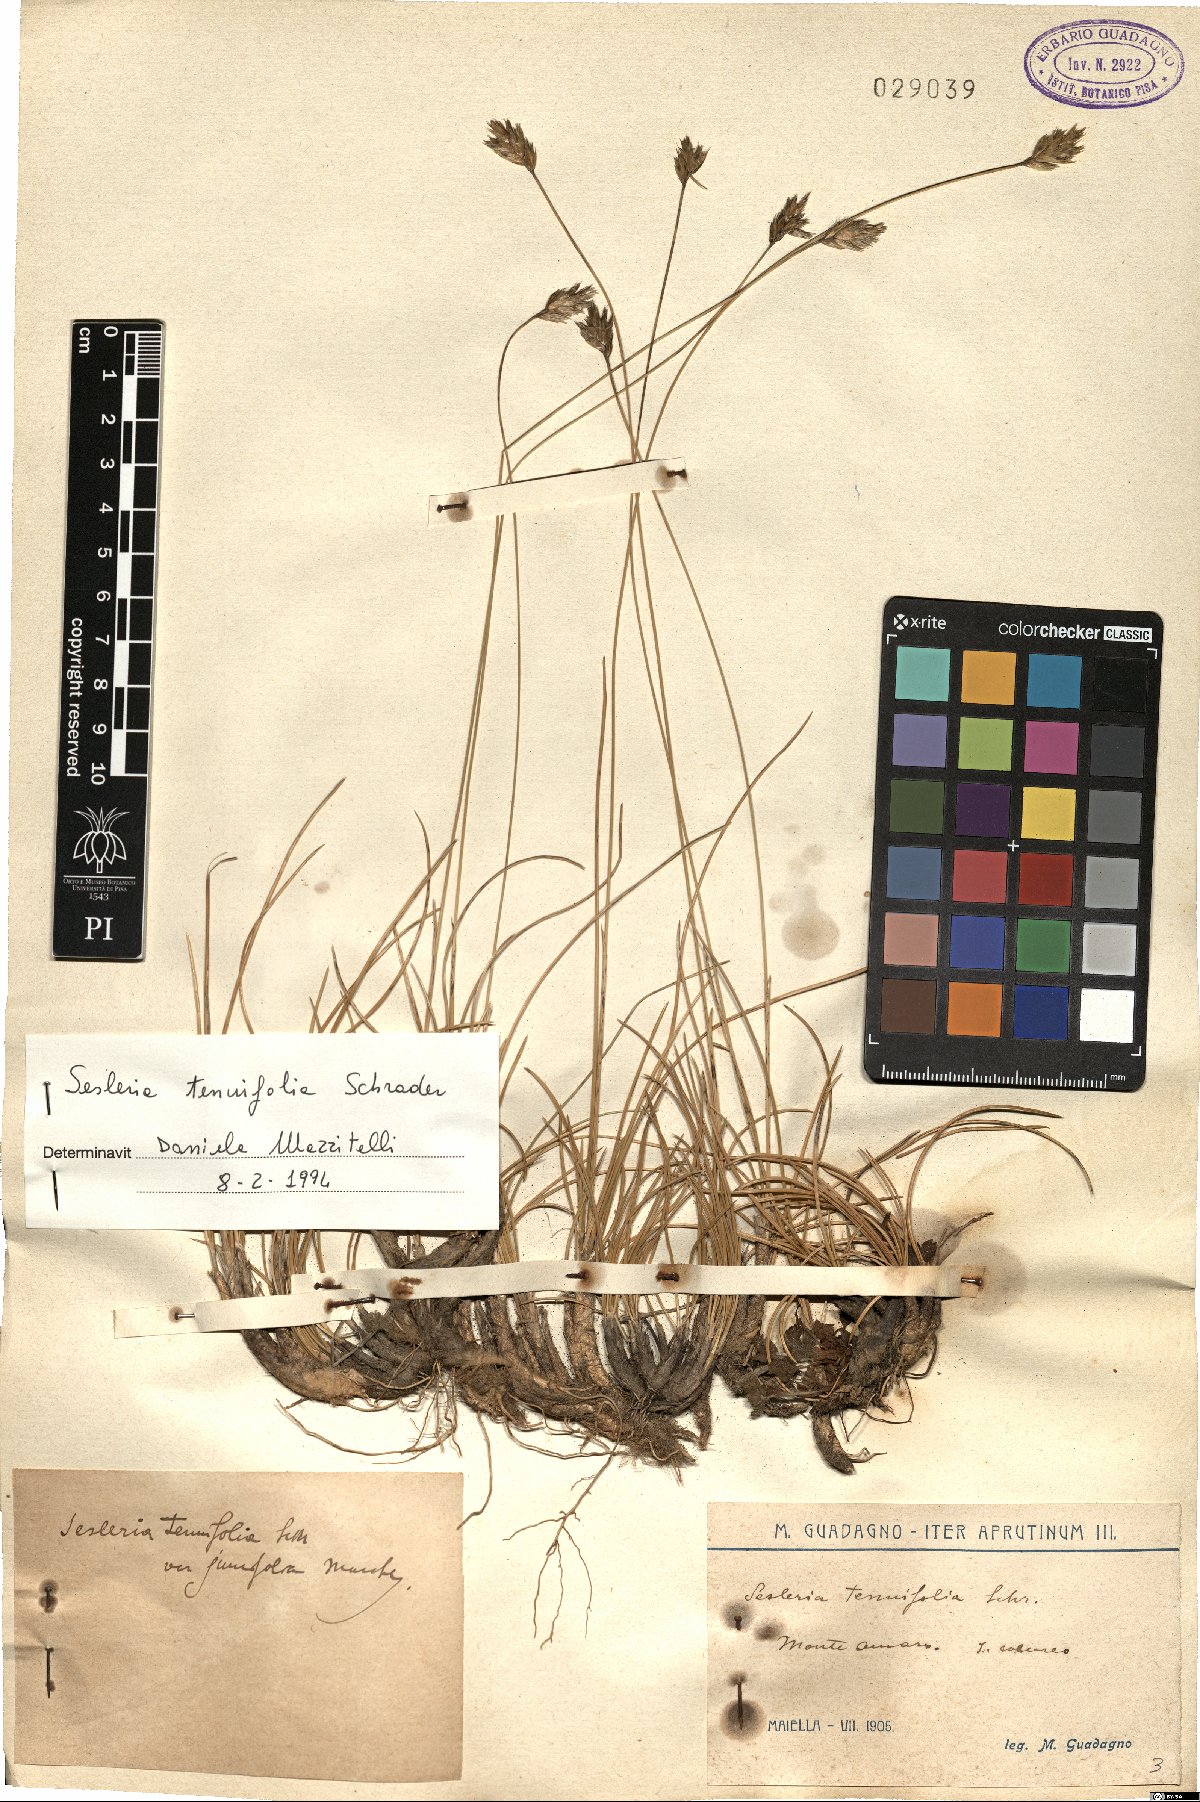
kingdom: Plantae
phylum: Tracheophyta
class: Liliopsida
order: Poales
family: Poaceae
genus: Sesleria
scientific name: Sesleria juncifolia
